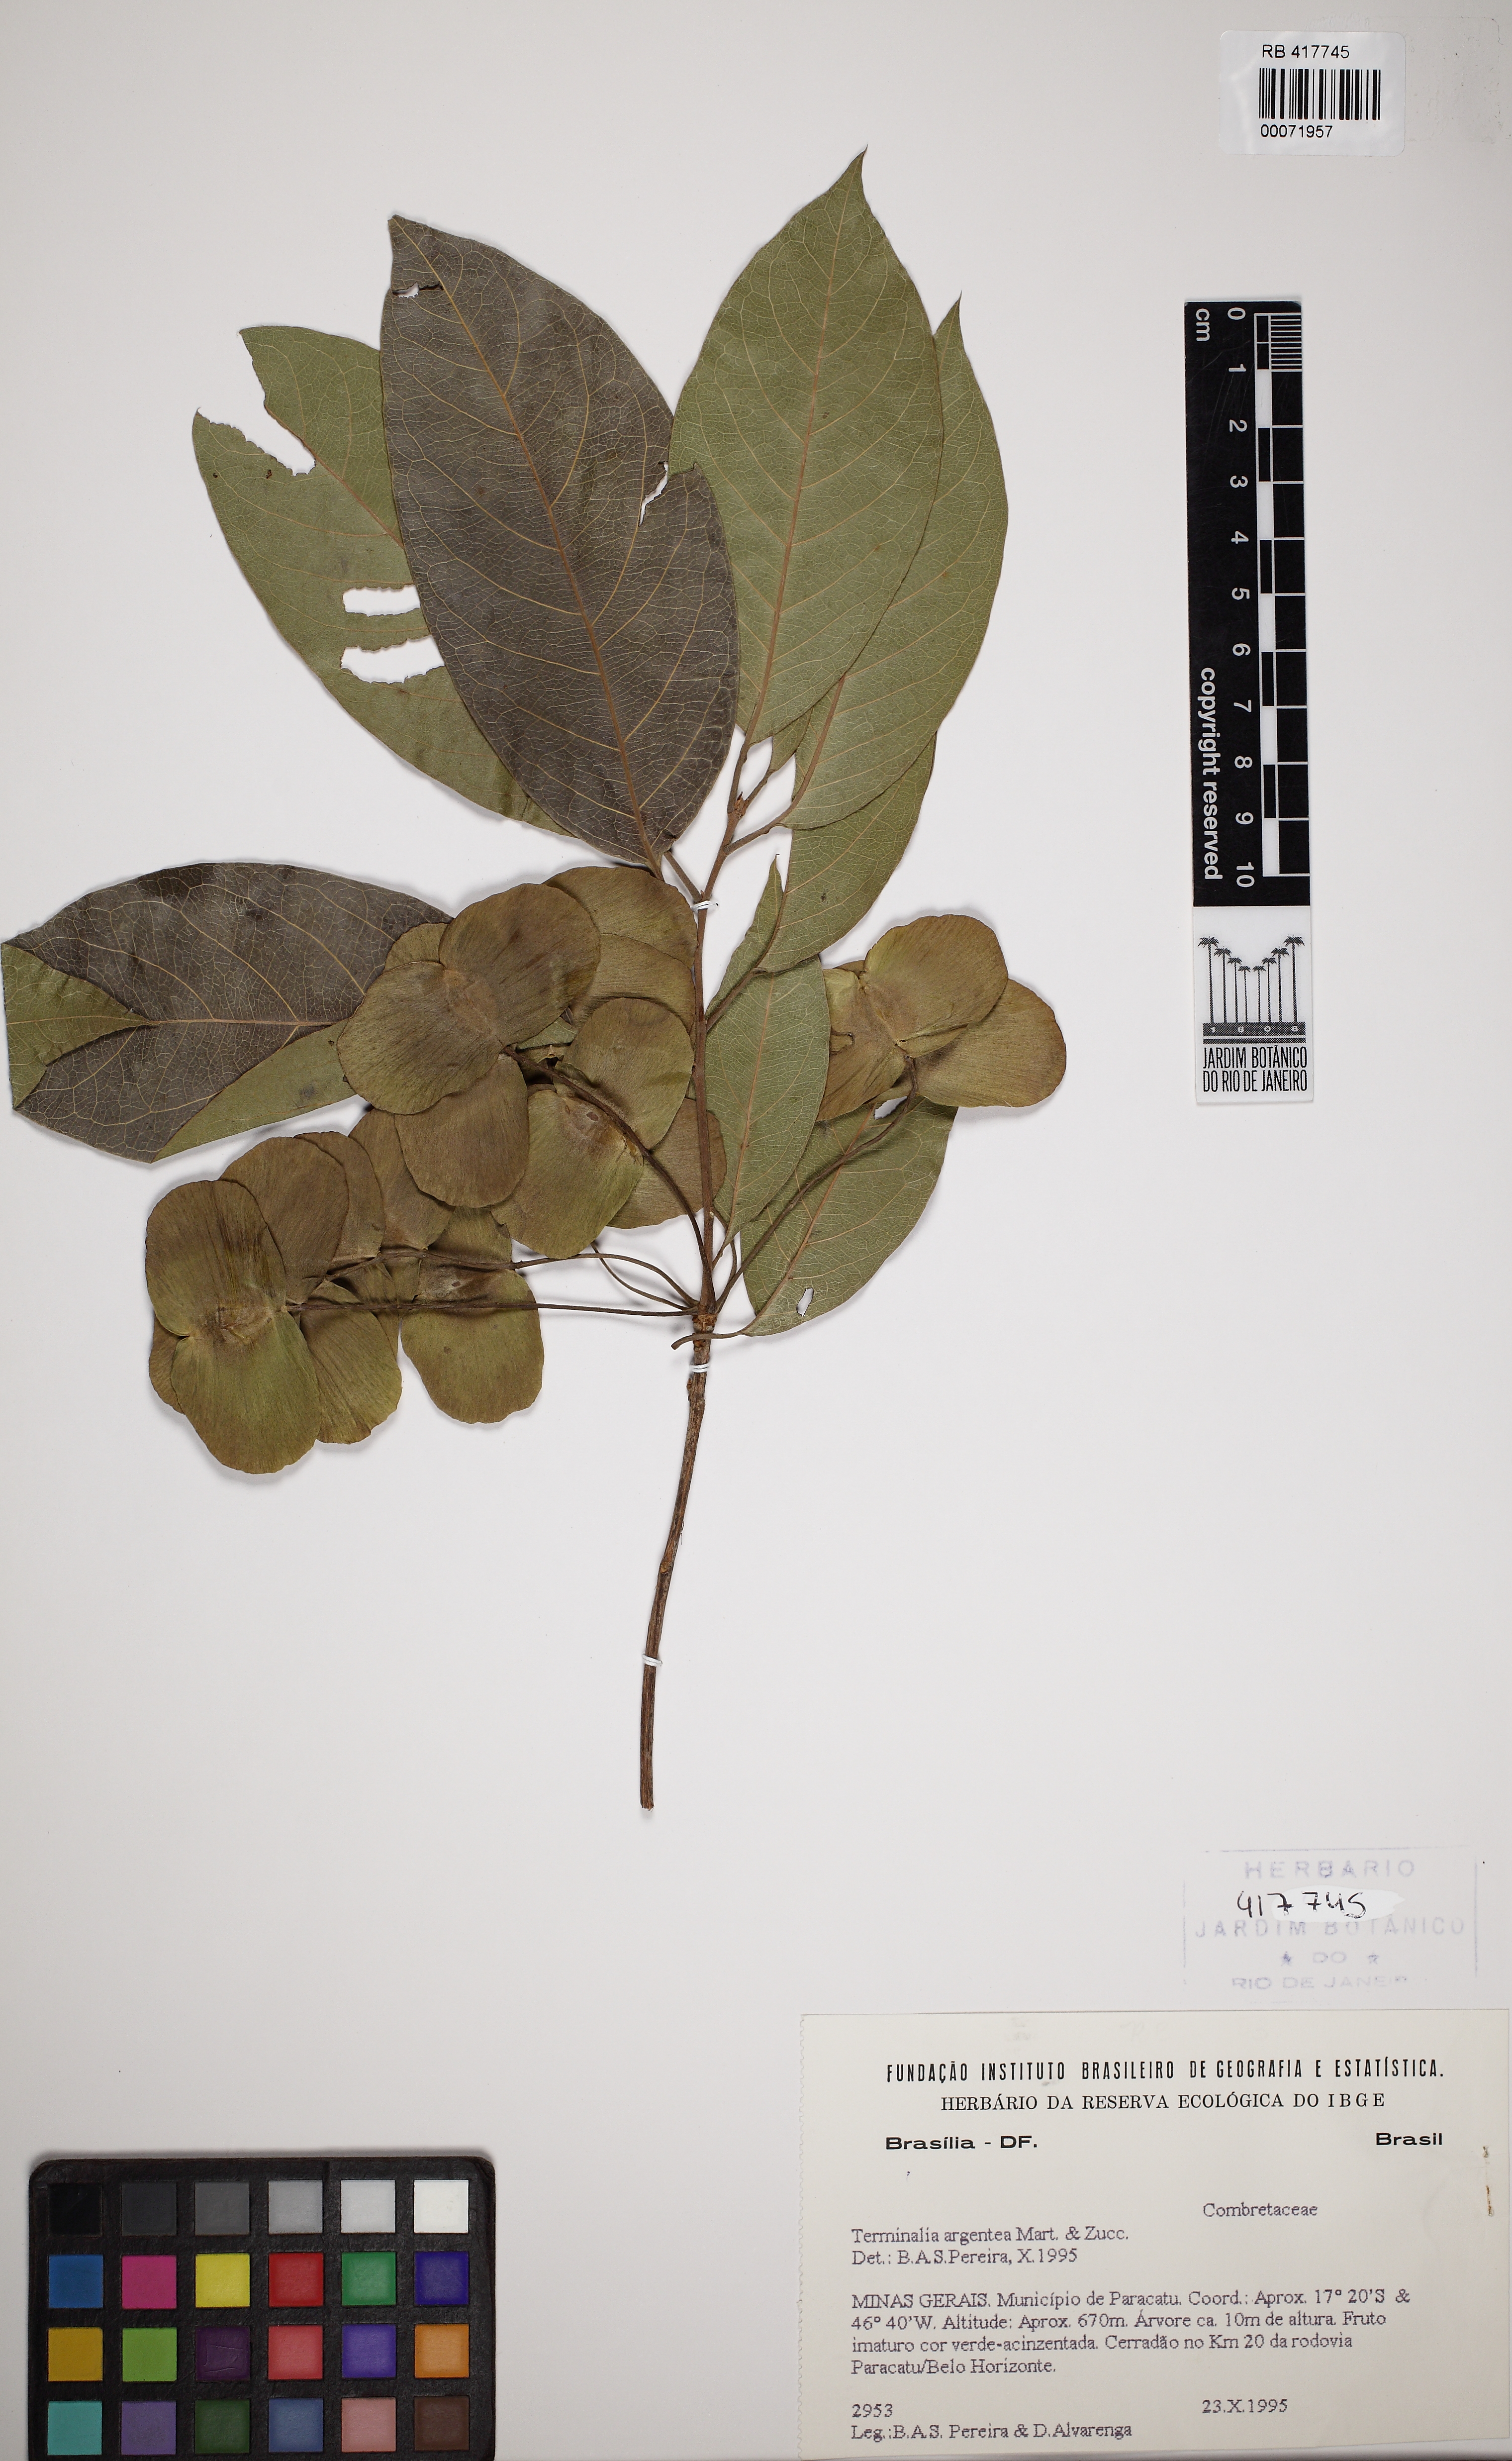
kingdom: Plantae
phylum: Tracheophyta
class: Magnoliopsida
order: Myrtales
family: Combretaceae
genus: Terminalia
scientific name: Terminalia argentea
